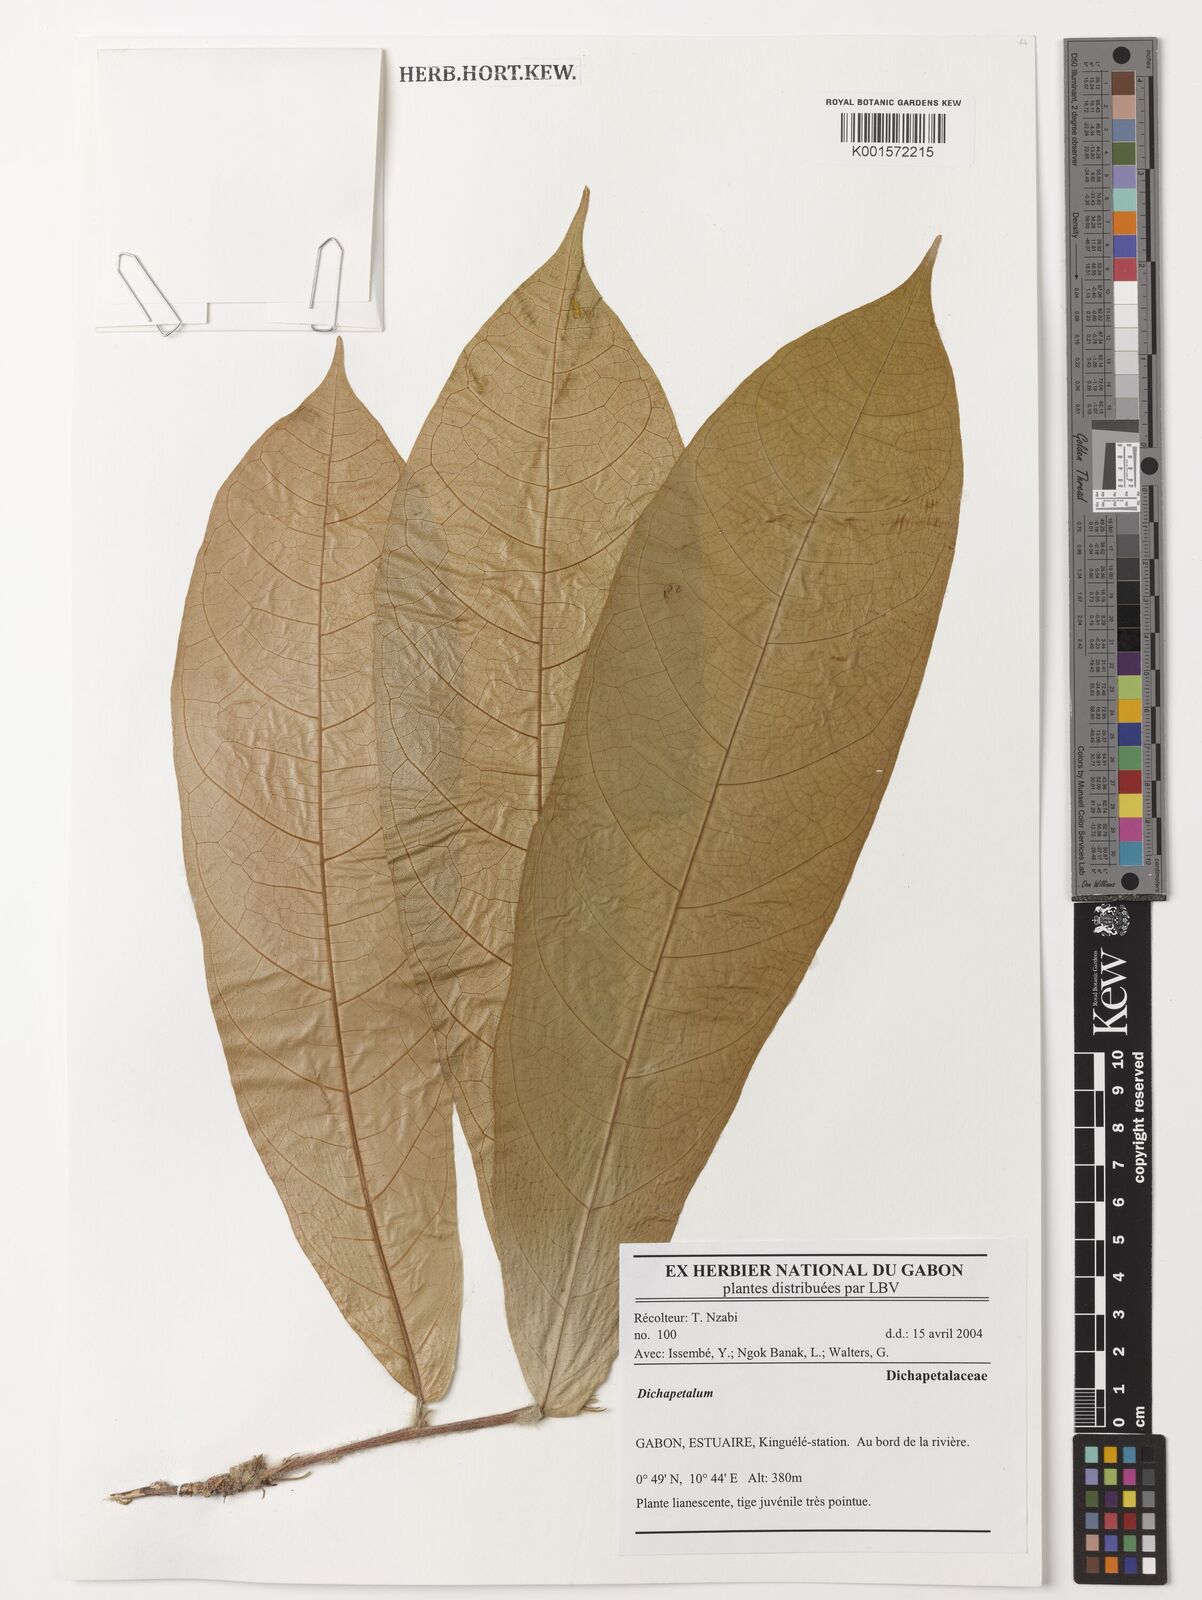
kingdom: Plantae
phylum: Tracheophyta
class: Magnoliopsida
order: Malpighiales
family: Dichapetalaceae
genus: Dichapetalum
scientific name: Dichapetalum
